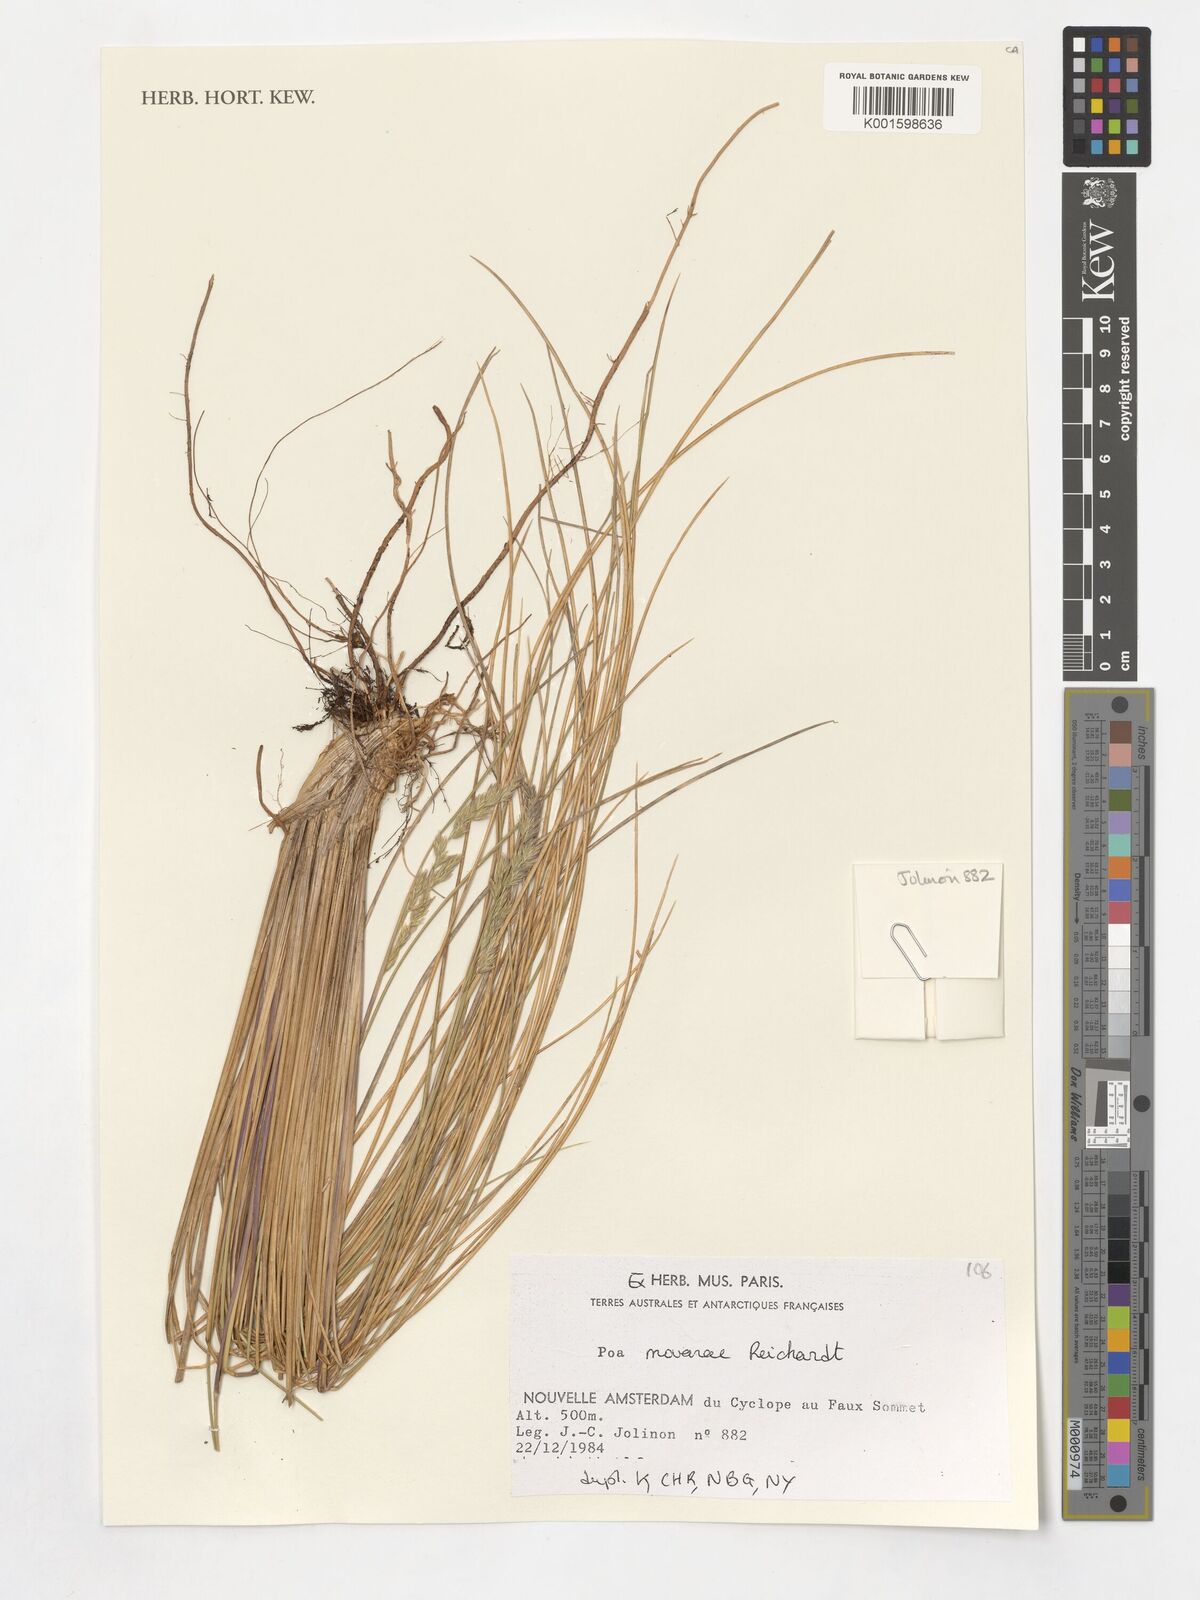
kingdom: Plantae
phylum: Tracheophyta
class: Liliopsida
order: Poales
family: Poaceae
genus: Poa
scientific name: Poa novarae
